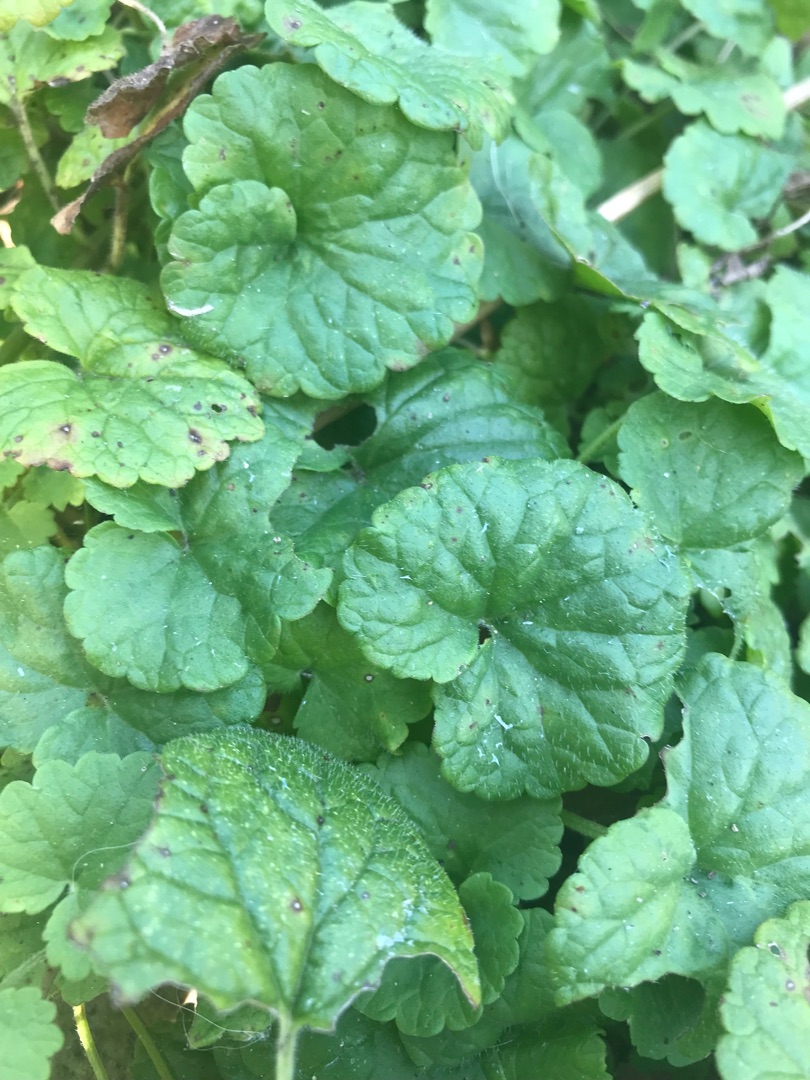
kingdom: Plantae
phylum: Tracheophyta
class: Magnoliopsida
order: Lamiales
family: Lamiaceae
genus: Glechoma
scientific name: Glechoma hederacea
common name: Korsknap
